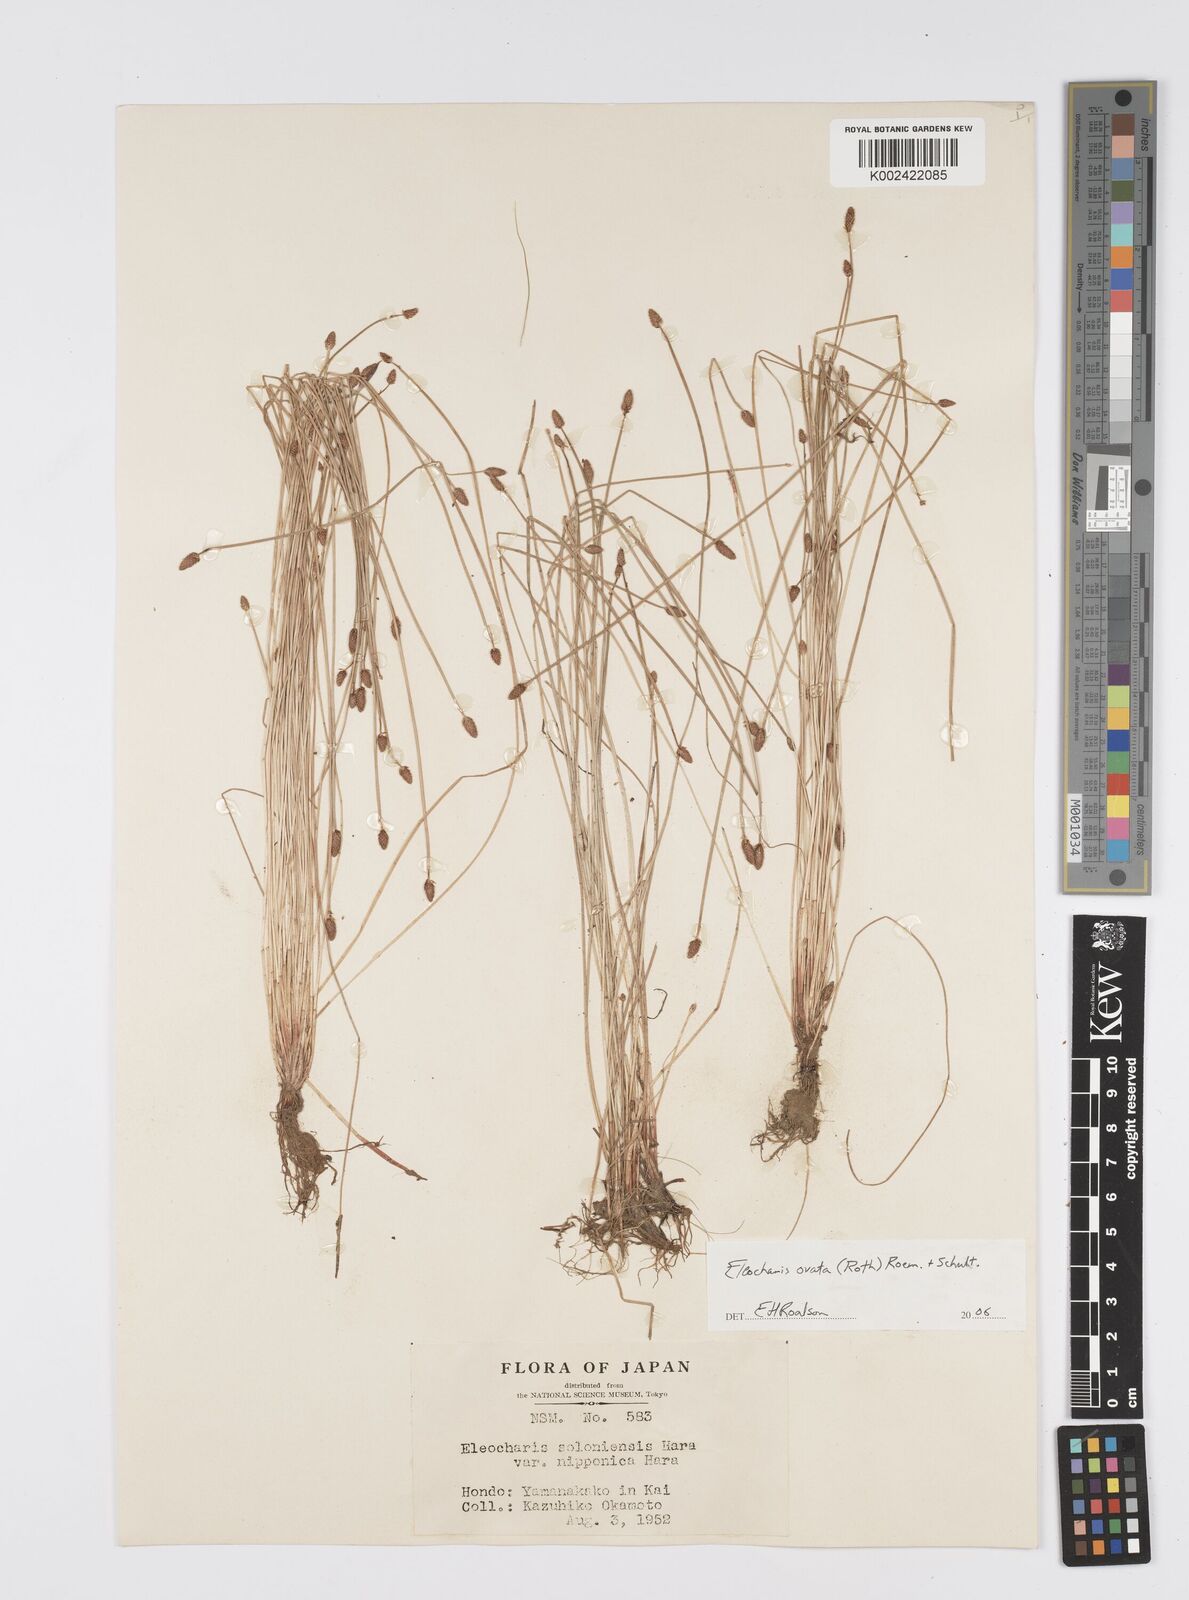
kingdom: Plantae
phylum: Tracheophyta
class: Liliopsida
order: Poales
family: Cyperaceae
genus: Eleocharis
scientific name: Eleocharis ovata
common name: Oval spike-rush
